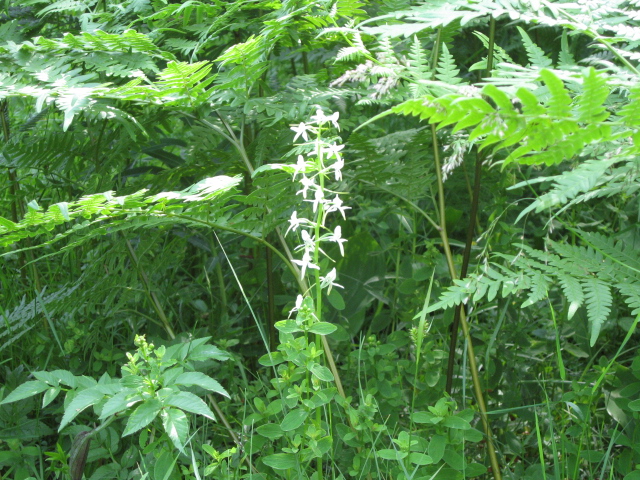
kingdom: Plantae
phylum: Tracheophyta
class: Liliopsida
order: Asparagales
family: Orchidaceae
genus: Platanthera
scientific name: Platanthera bifolia
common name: Lesser butterfly-orchid
